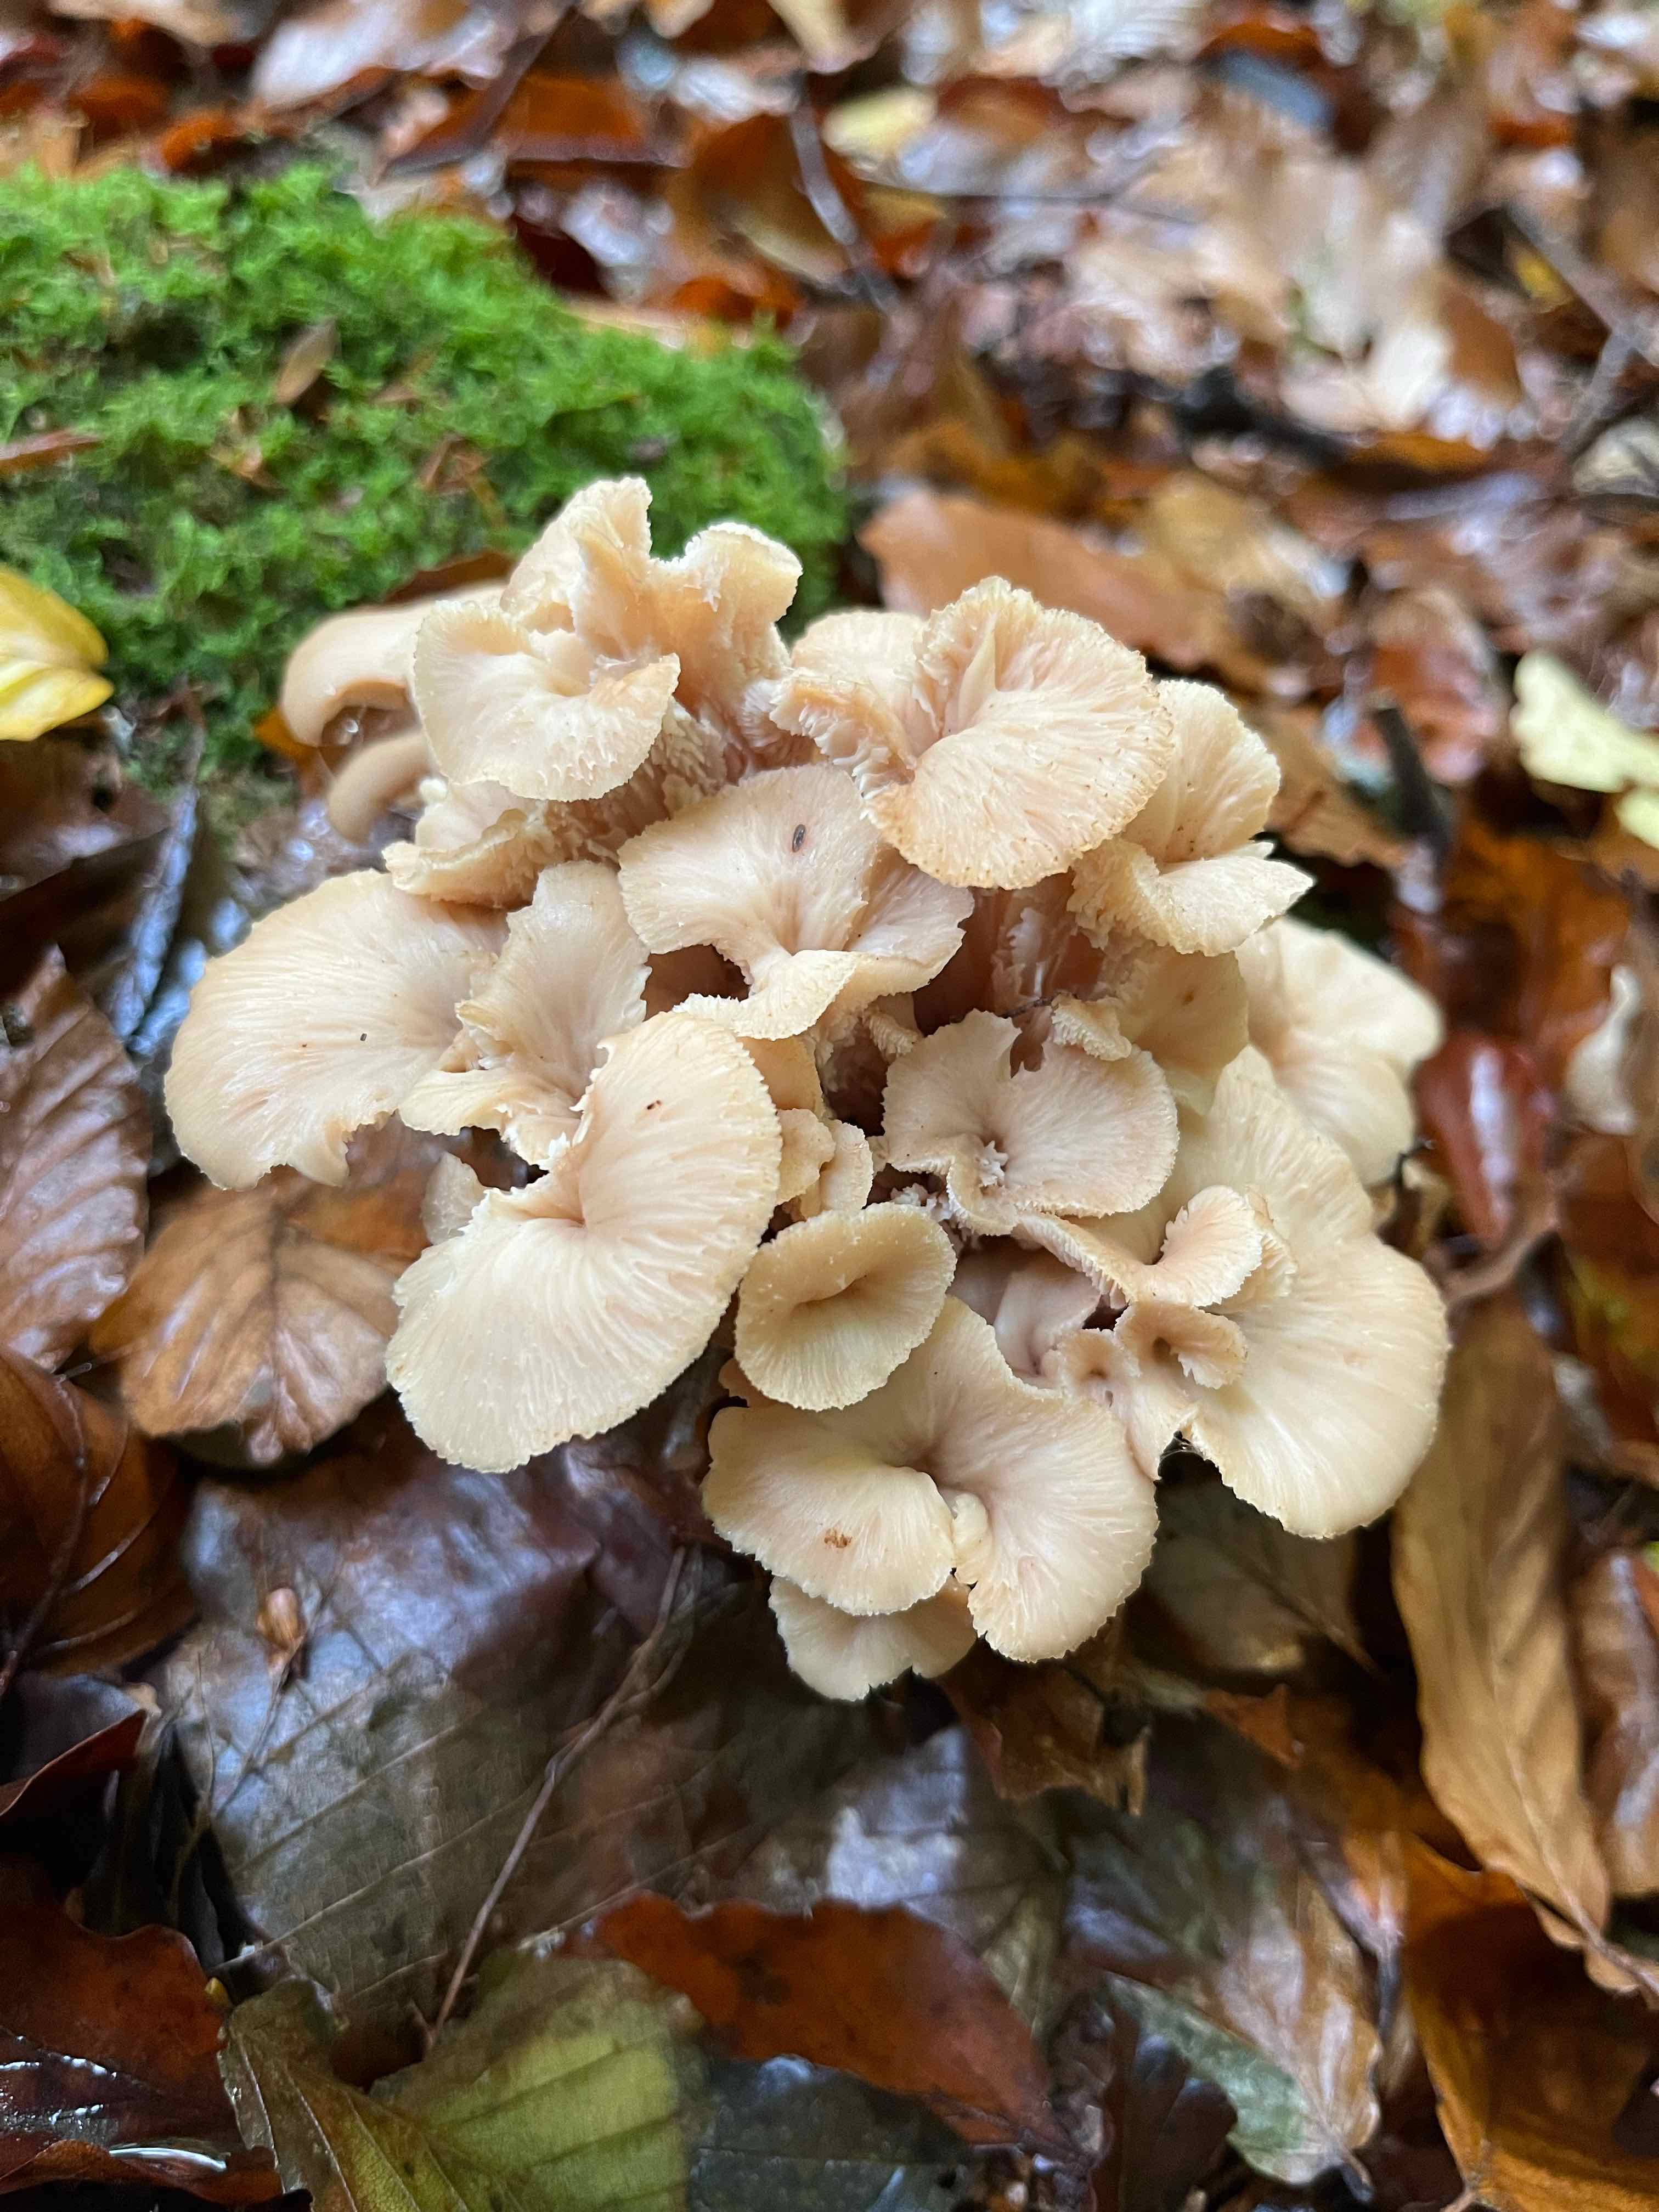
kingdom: Fungi
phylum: Basidiomycota
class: Agaricomycetes
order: Russulales
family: Auriscalpiaceae
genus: Lentinellus
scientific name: Lentinellus cochleatus
